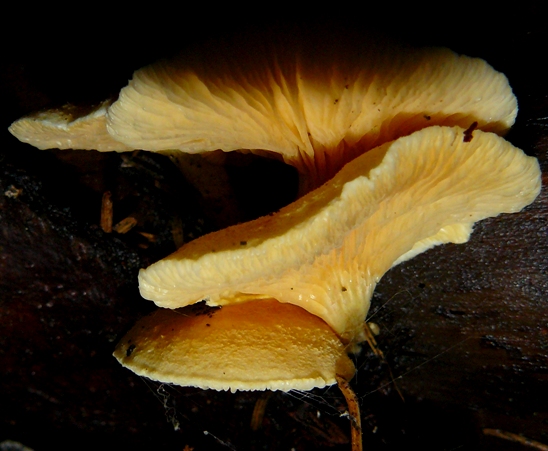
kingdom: Fungi
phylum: Basidiomycota
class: Agaricomycetes
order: Boletales
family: Hygrophoropsidaceae
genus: Hygrophoropsis
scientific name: Hygrophoropsis aurantiaca
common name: almindelig orangekantarel
